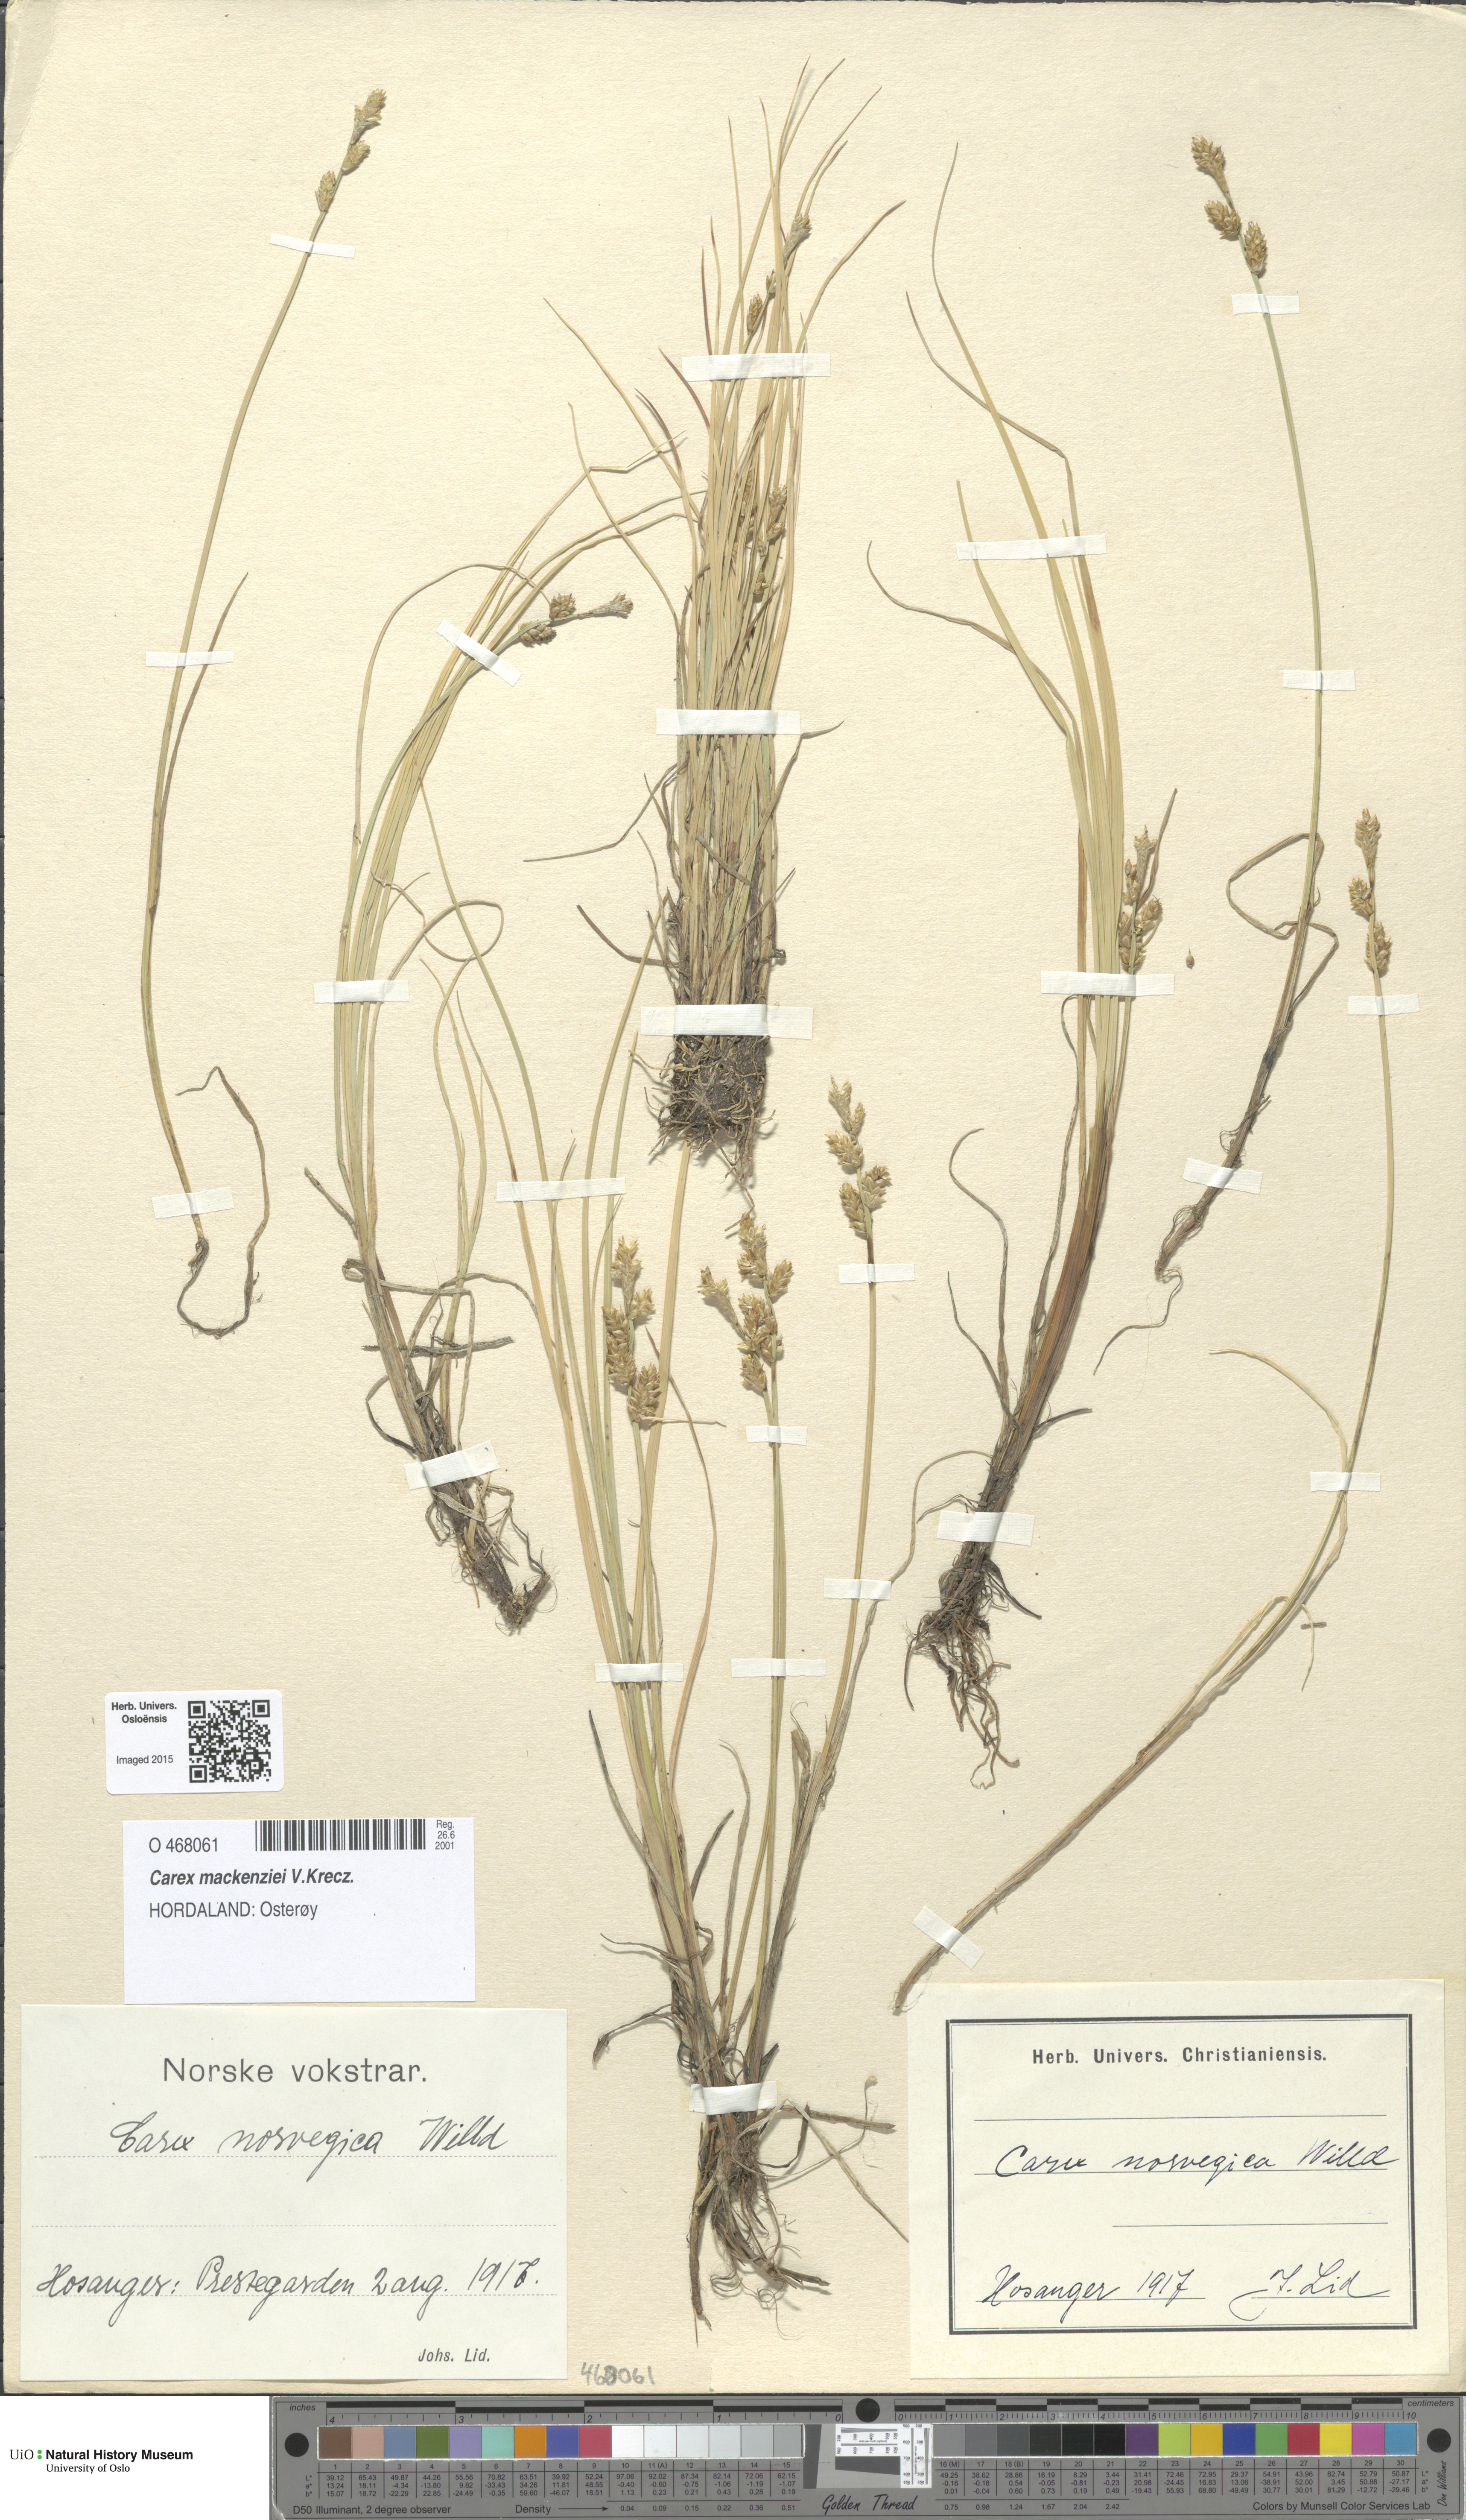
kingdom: Plantae
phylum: Tracheophyta
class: Liliopsida
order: Poales
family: Cyperaceae
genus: Carex
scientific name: Carex mackenziei
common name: Mackenzie's sedge
